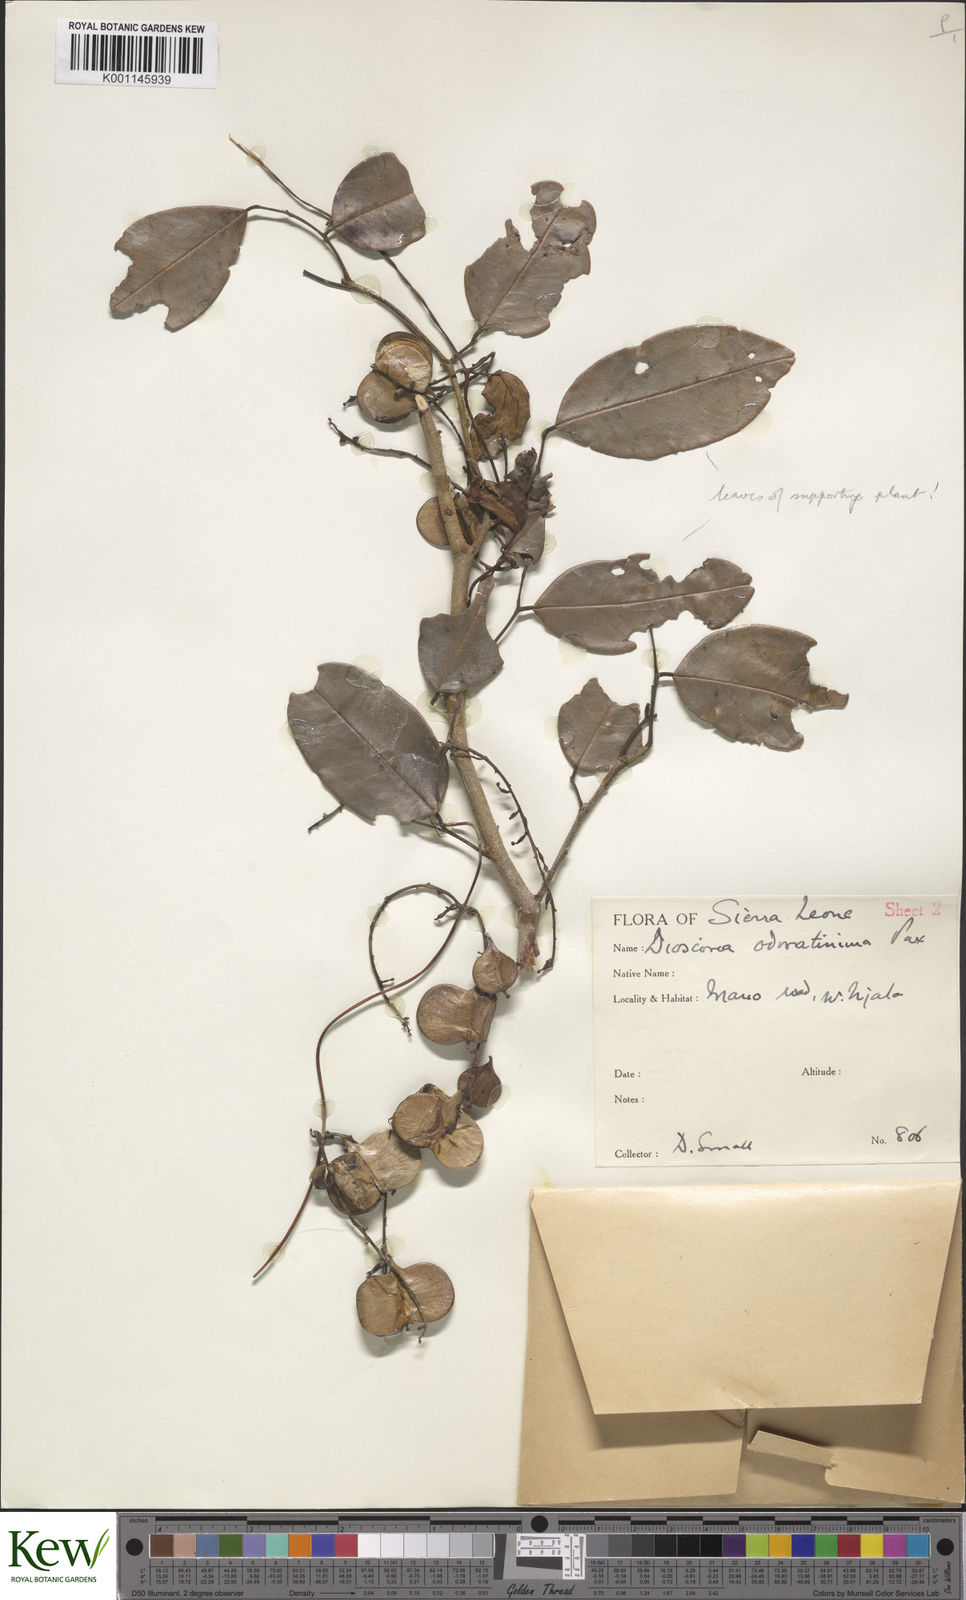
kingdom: Plantae
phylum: Tracheophyta
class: Liliopsida
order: Dioscoreales
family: Dioscoreaceae
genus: Dioscorea
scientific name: Dioscorea praehensilis
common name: Bush yam
